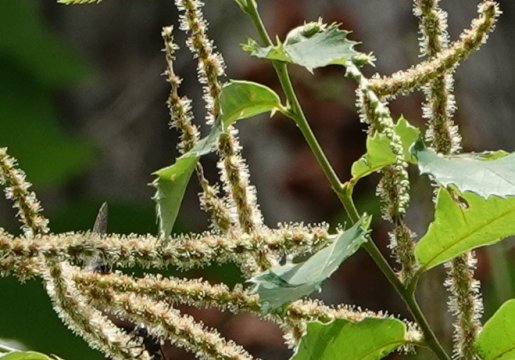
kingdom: Animalia
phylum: Arthropoda
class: Insecta
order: Lepidoptera
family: Lycaenidae
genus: Satyrium
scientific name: Satyrium
